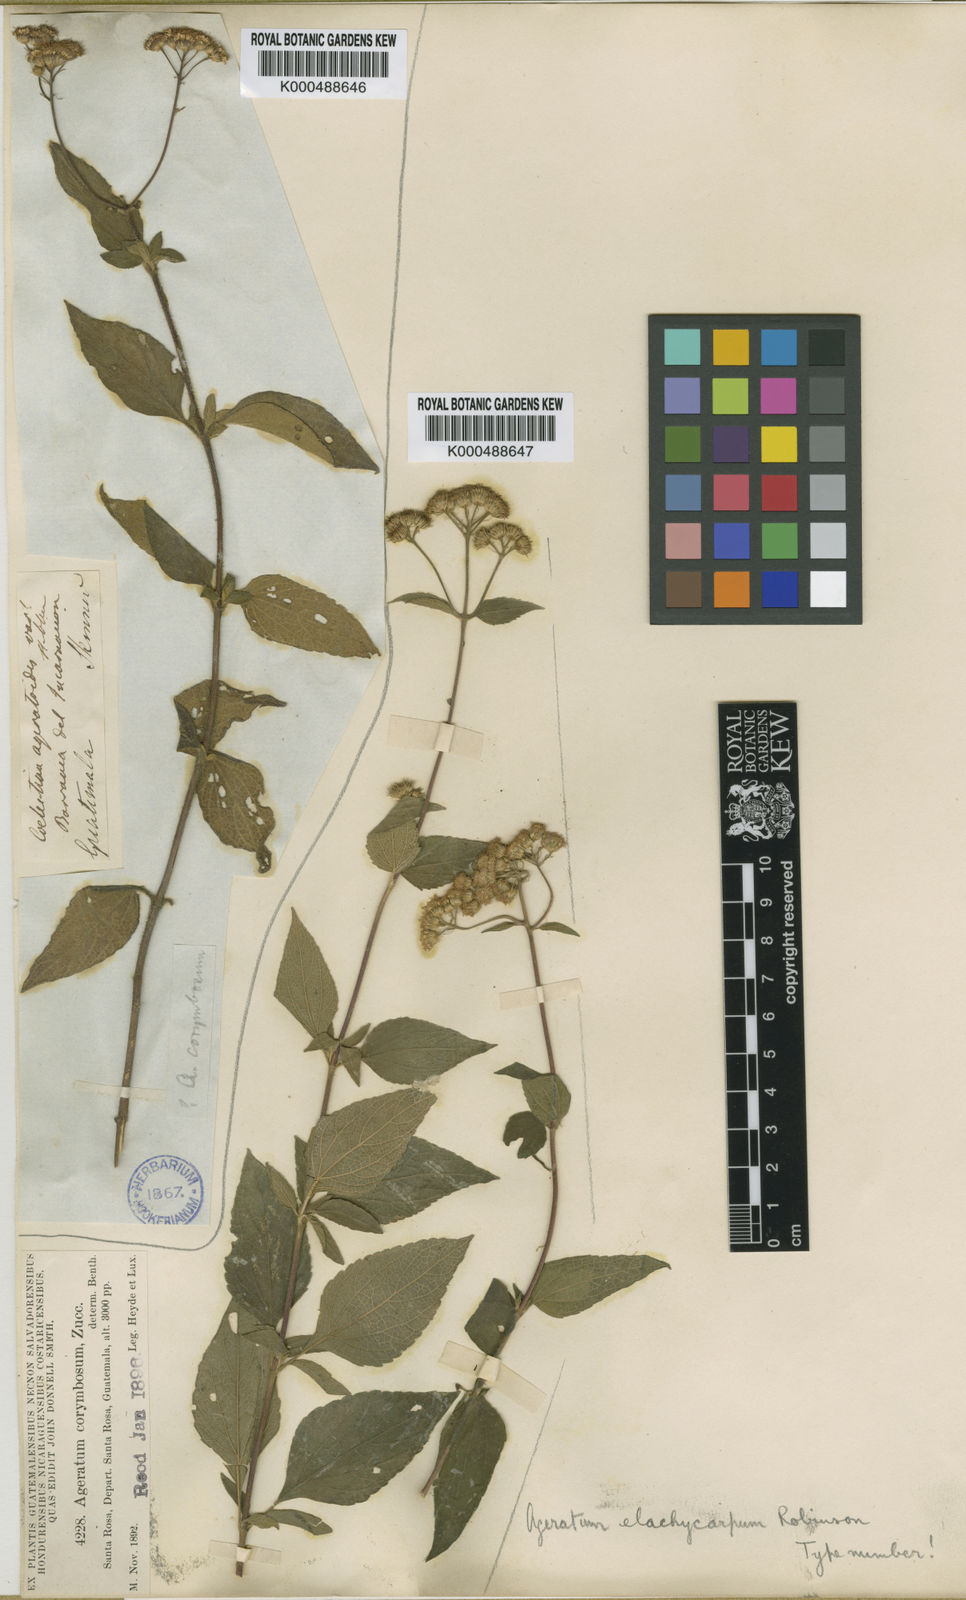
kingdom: Plantae
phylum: Tracheophyta
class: Magnoliopsida
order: Asterales
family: Asteraceae
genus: Ageratum
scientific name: Ageratum rugosum
